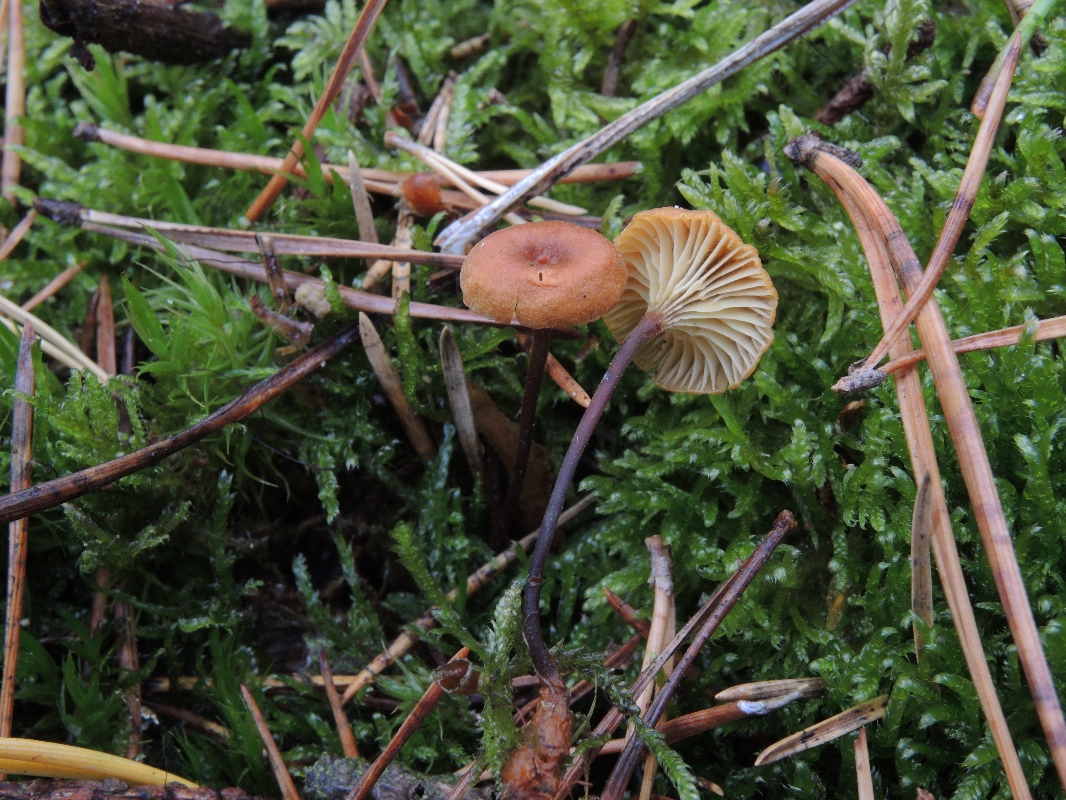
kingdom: Fungi
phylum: Basidiomycota
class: Agaricomycetes
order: Agaricales
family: Mycenaceae
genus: Xeromphalina
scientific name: Xeromphalina cornui
